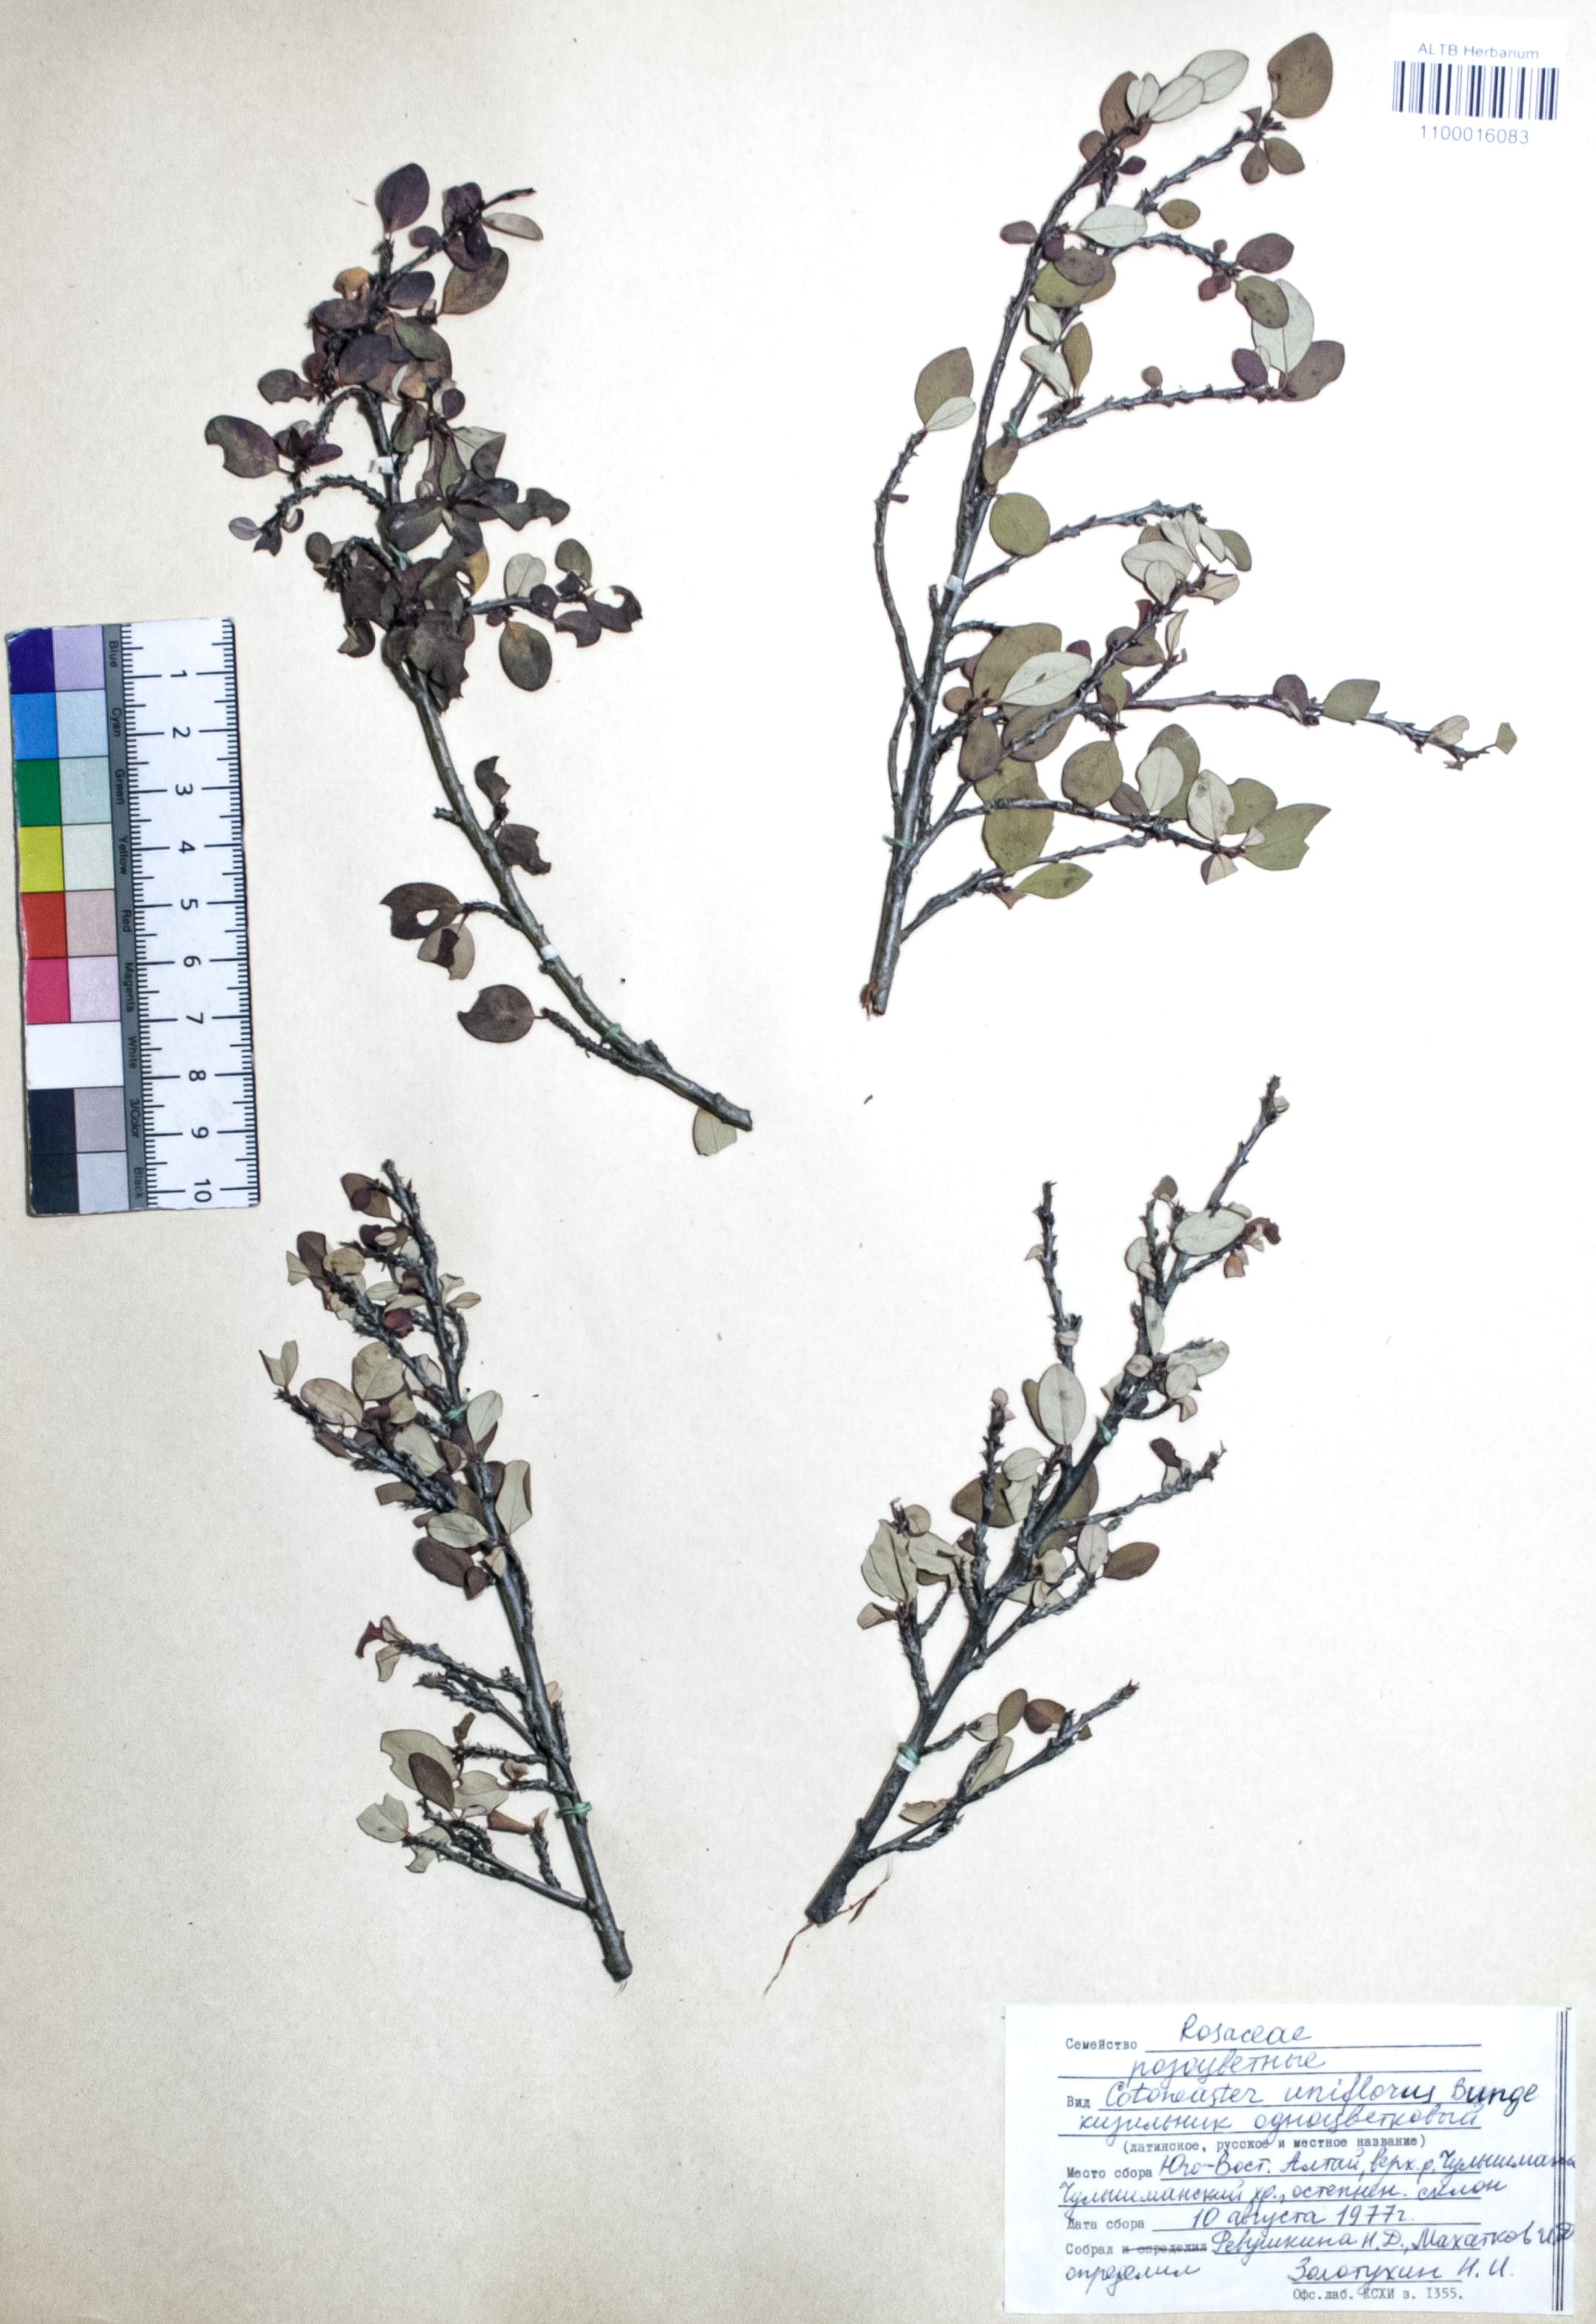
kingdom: Plantae
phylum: Tracheophyta
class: Magnoliopsida
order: Rosales
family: Rosaceae
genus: Cotoneaster
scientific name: Cotoneaster uniflorus
